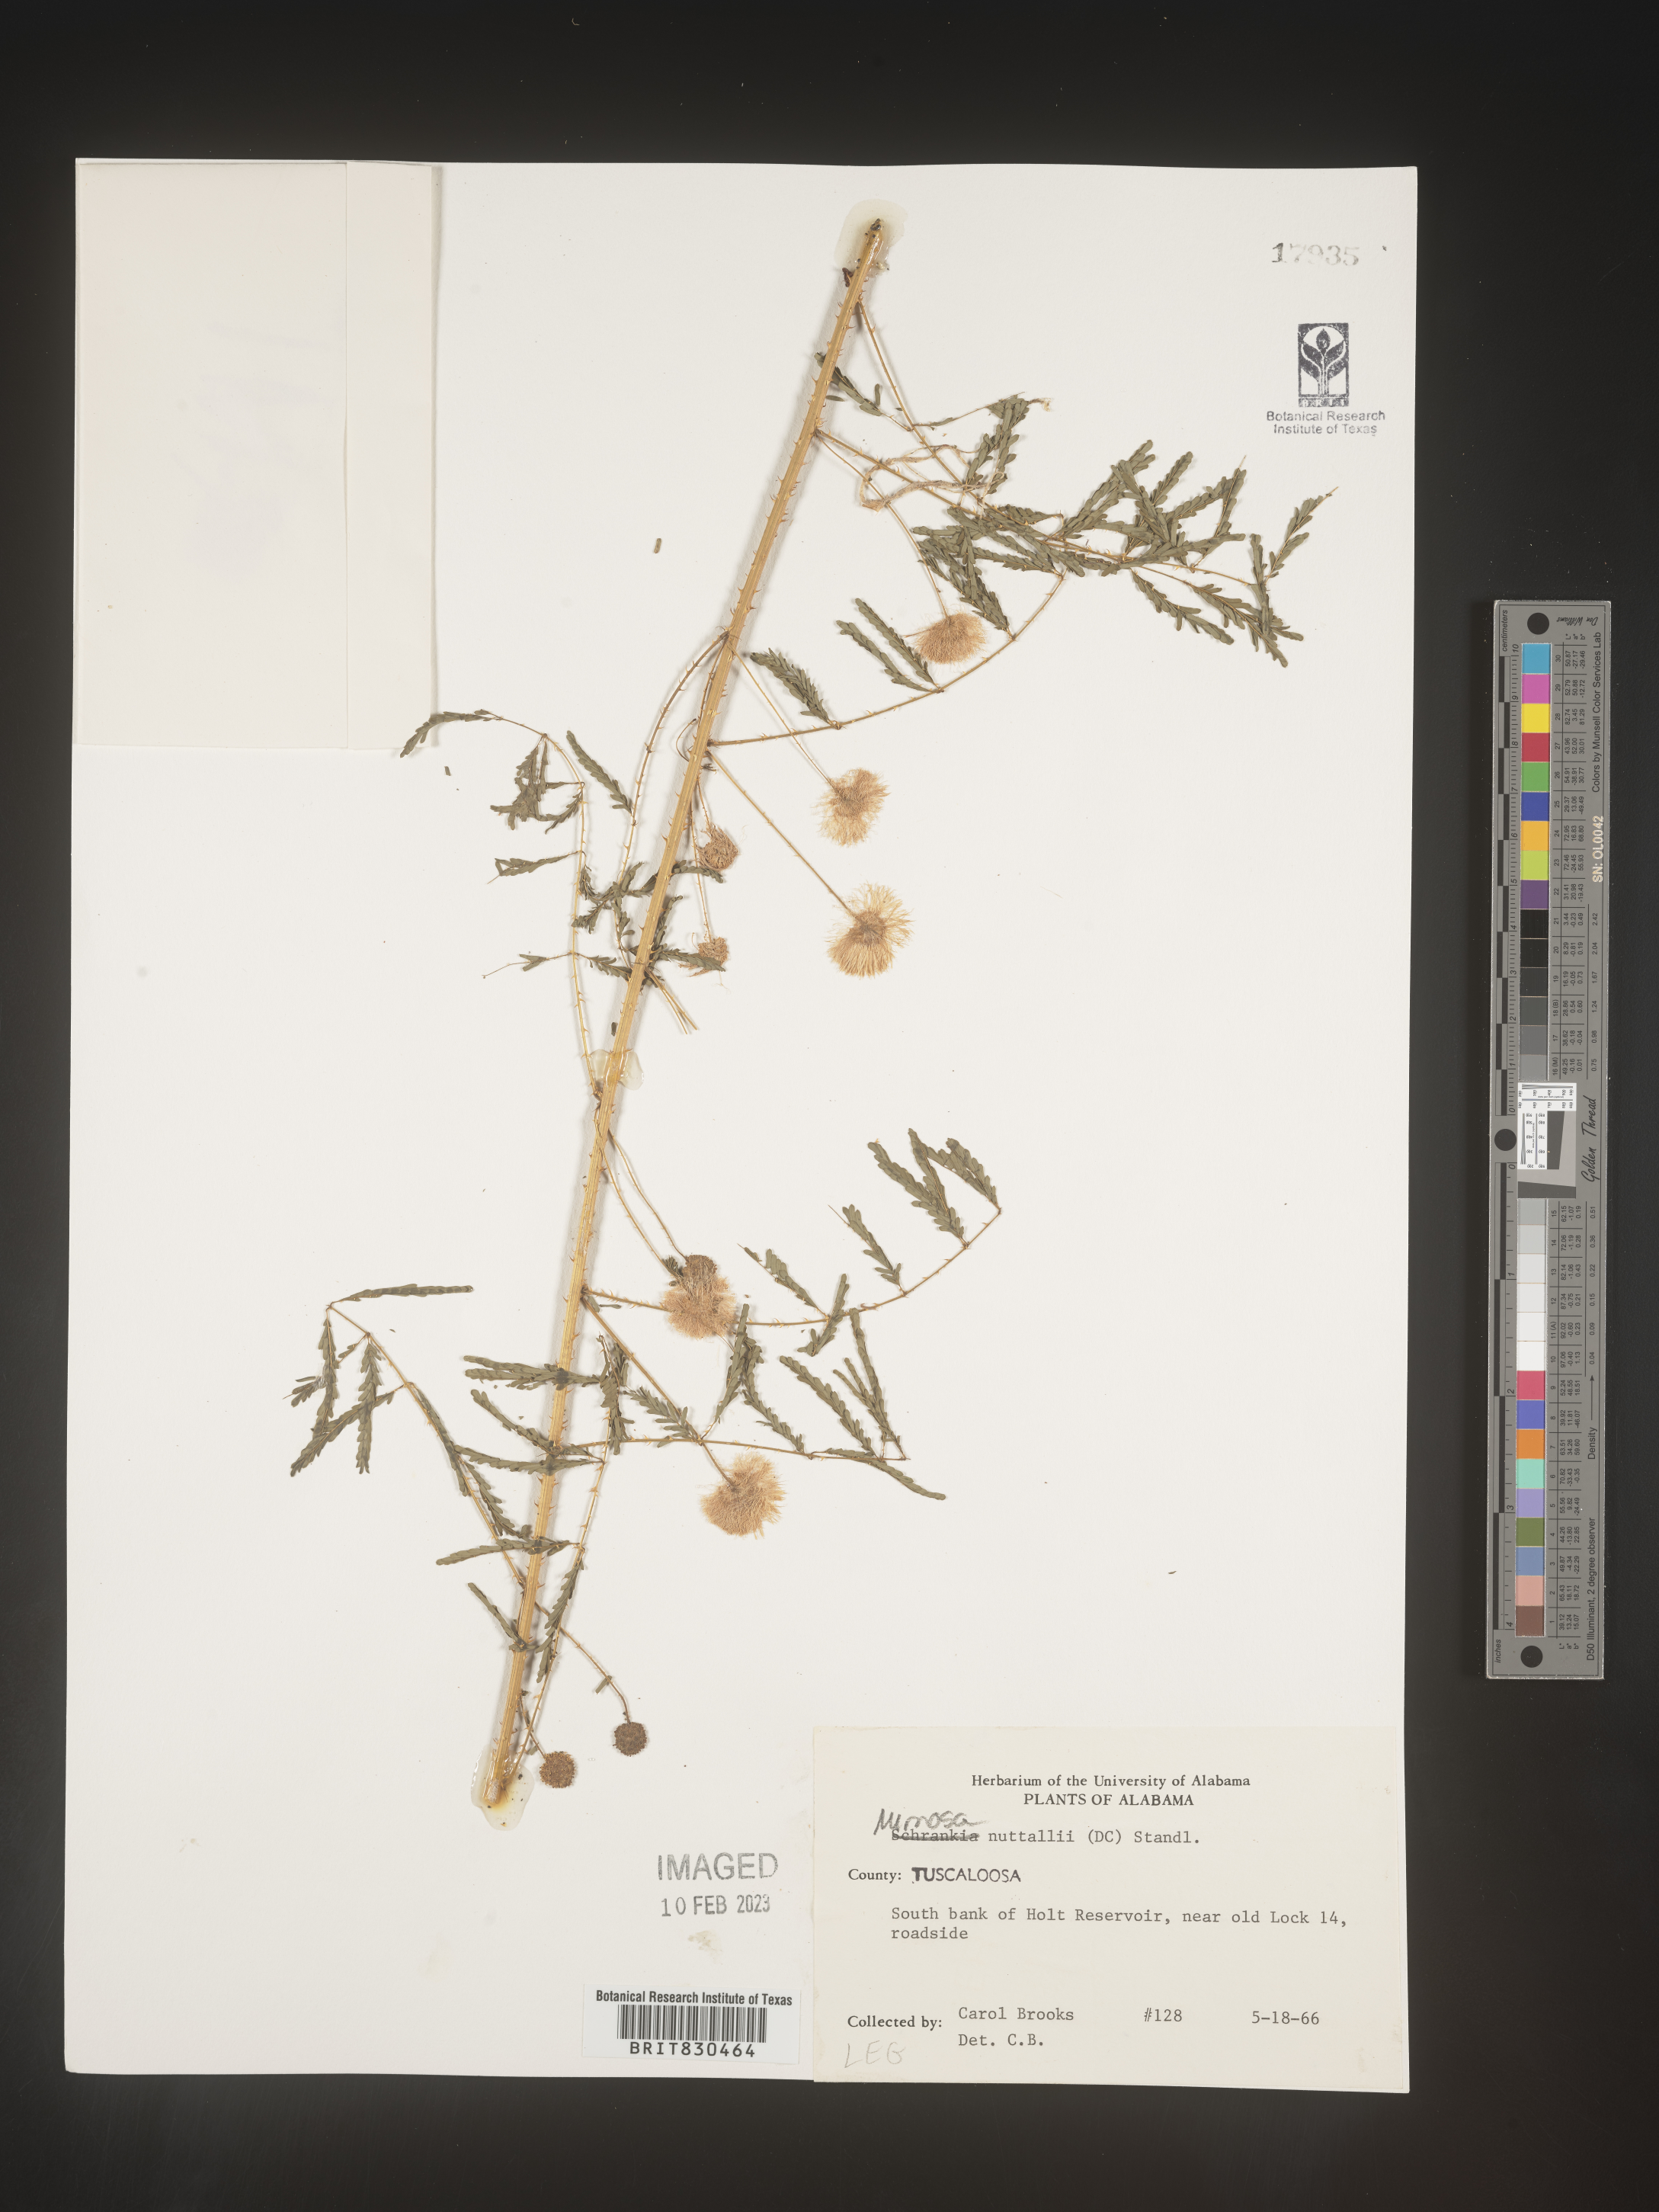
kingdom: Plantae
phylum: Tracheophyta
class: Magnoliopsida
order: Fabales
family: Fabaceae
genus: Mimosa
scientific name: Mimosa quadrivalvis
